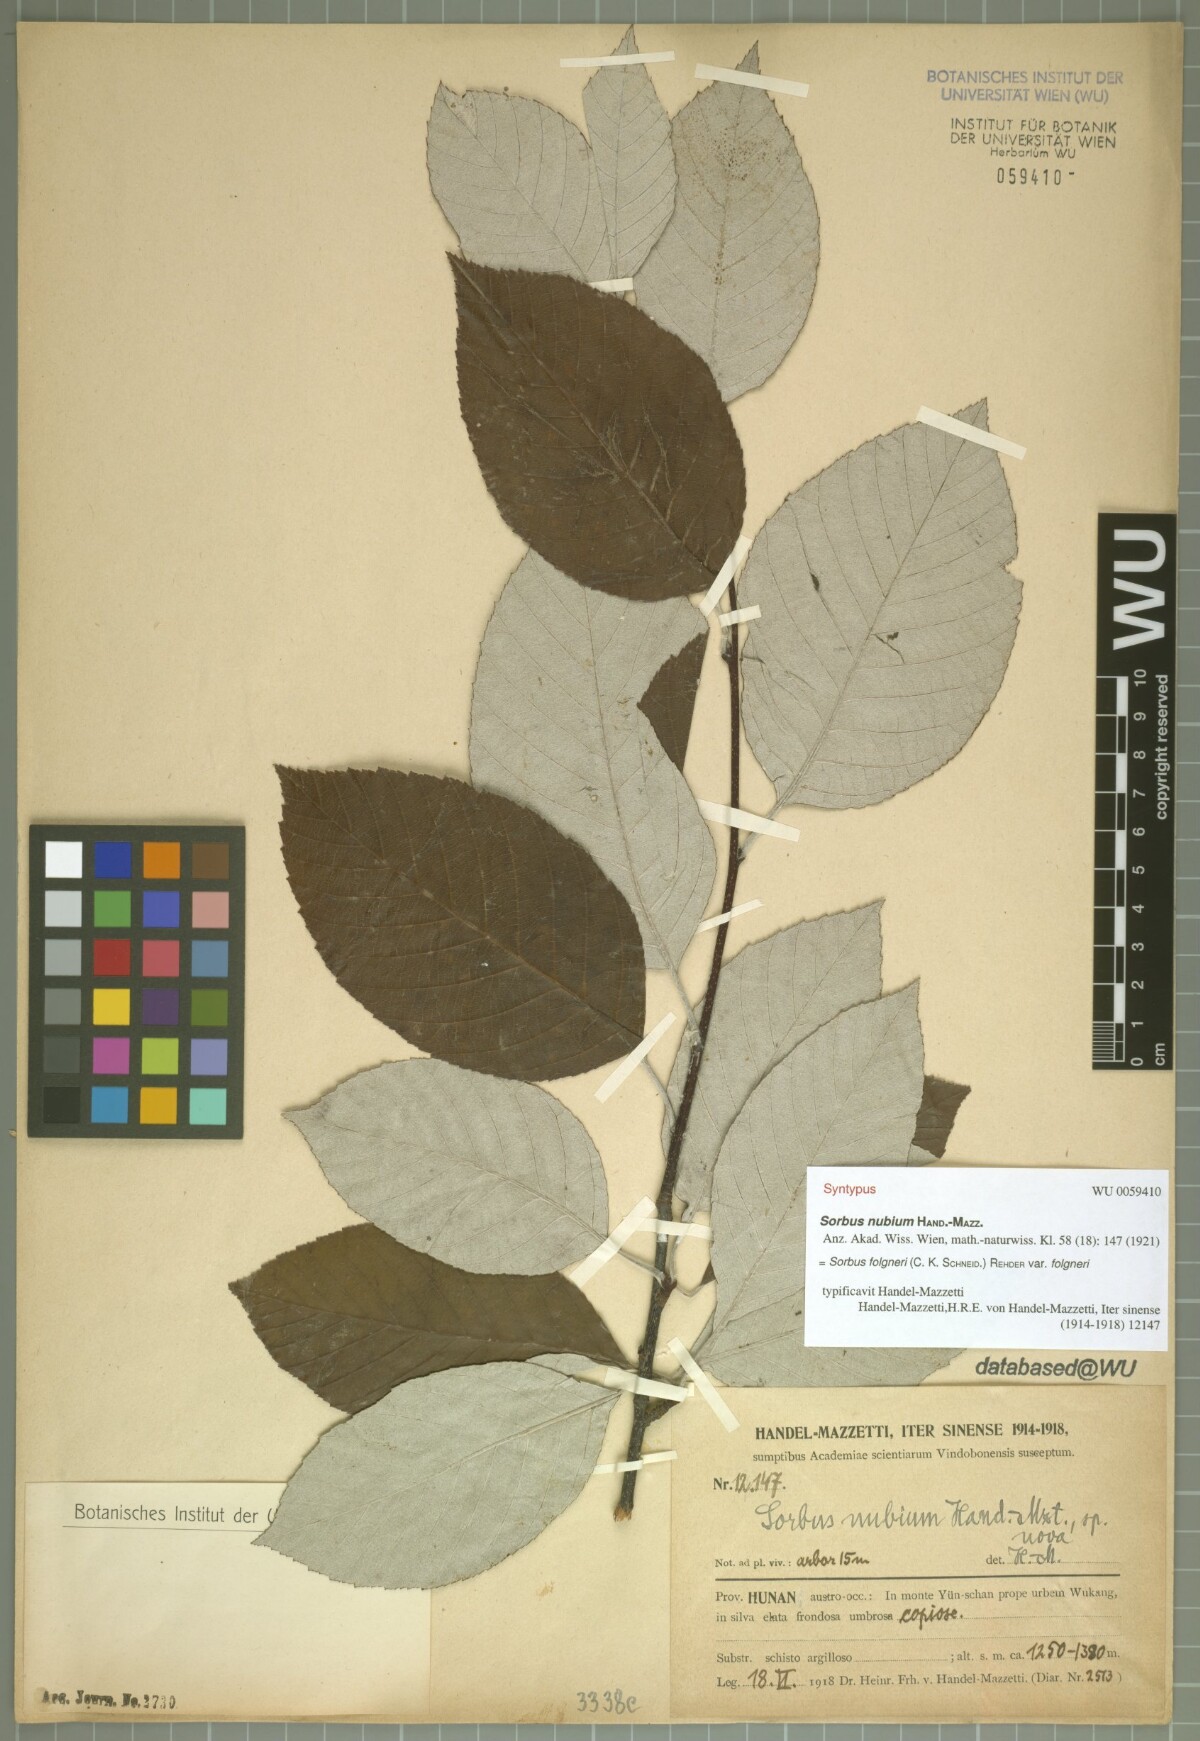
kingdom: Plantae
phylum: Tracheophyta
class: Magnoliopsida
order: Rosales
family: Rosaceae
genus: Sorbus
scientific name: Sorbus nubium
